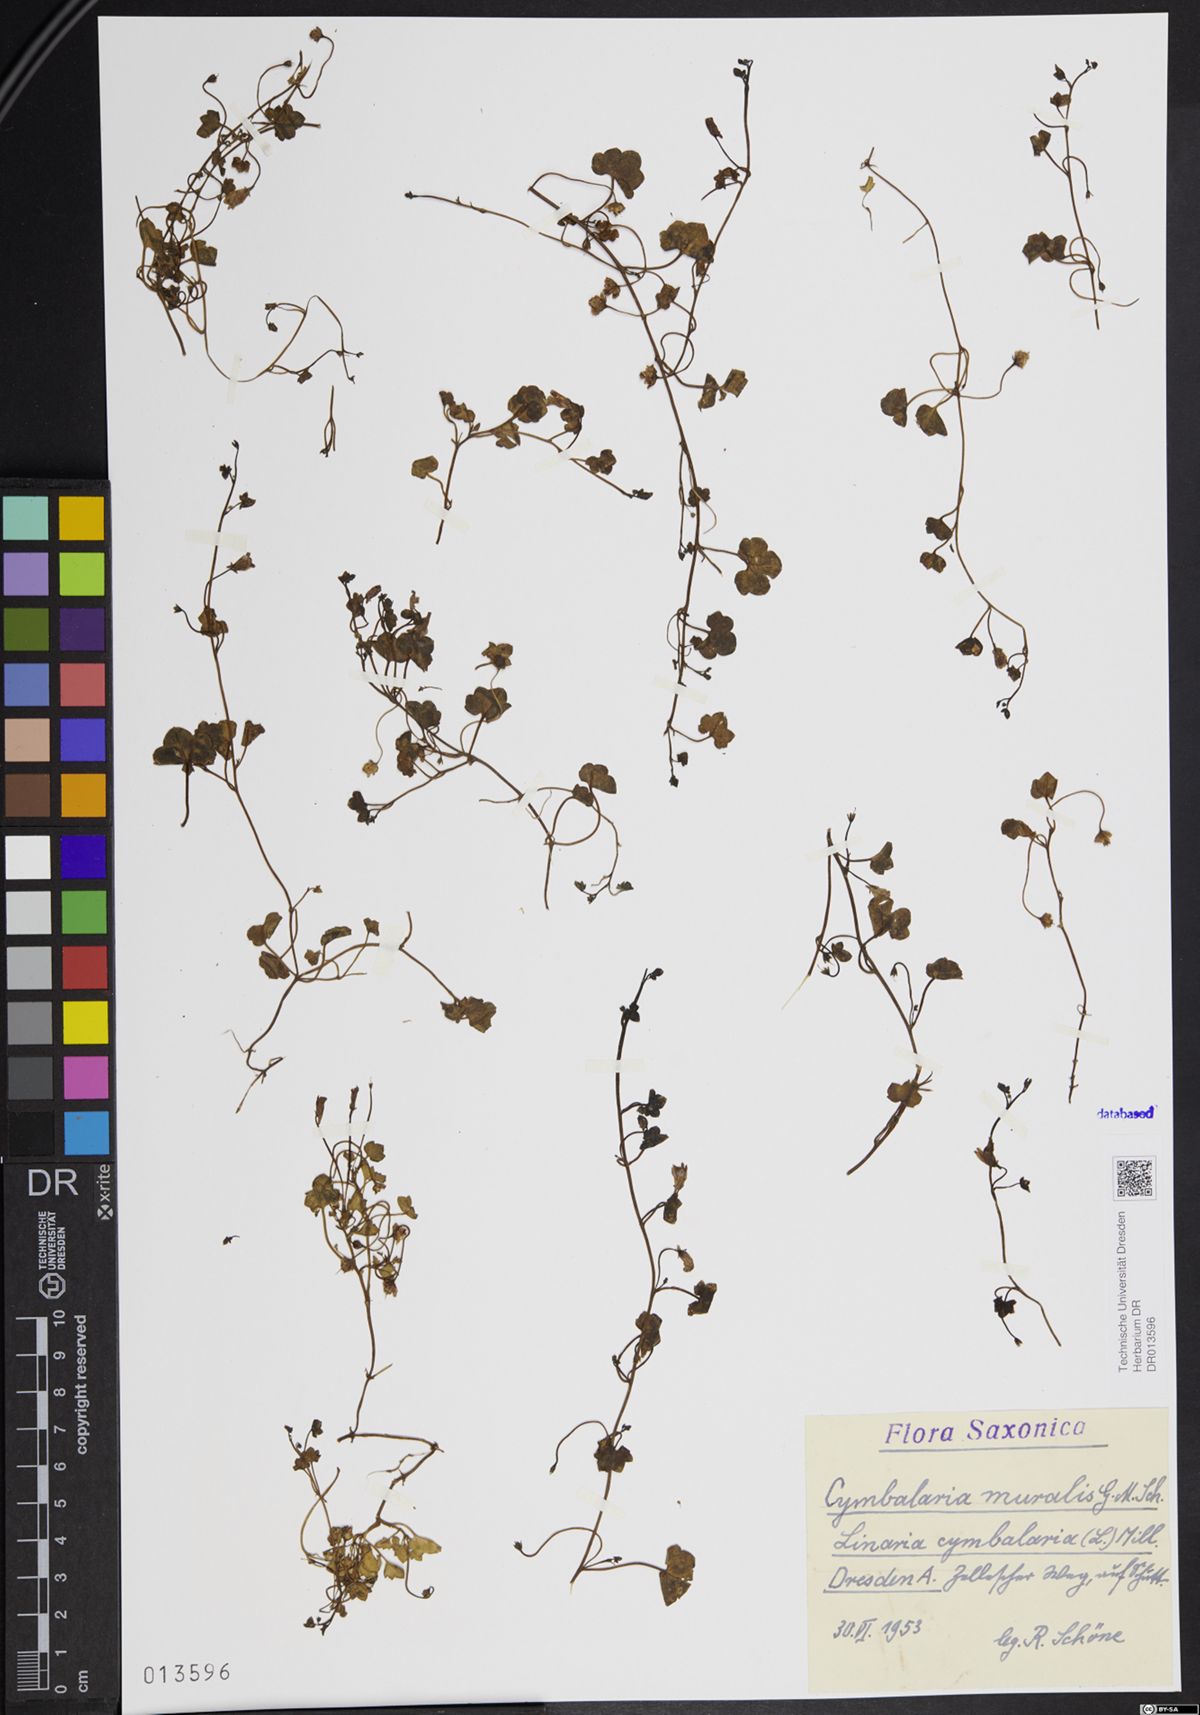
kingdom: Plantae
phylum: Tracheophyta
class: Magnoliopsida
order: Lamiales
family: Plantaginaceae
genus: Cymbalaria
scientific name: Cymbalaria muralis
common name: Ivy-leaved toadflax
